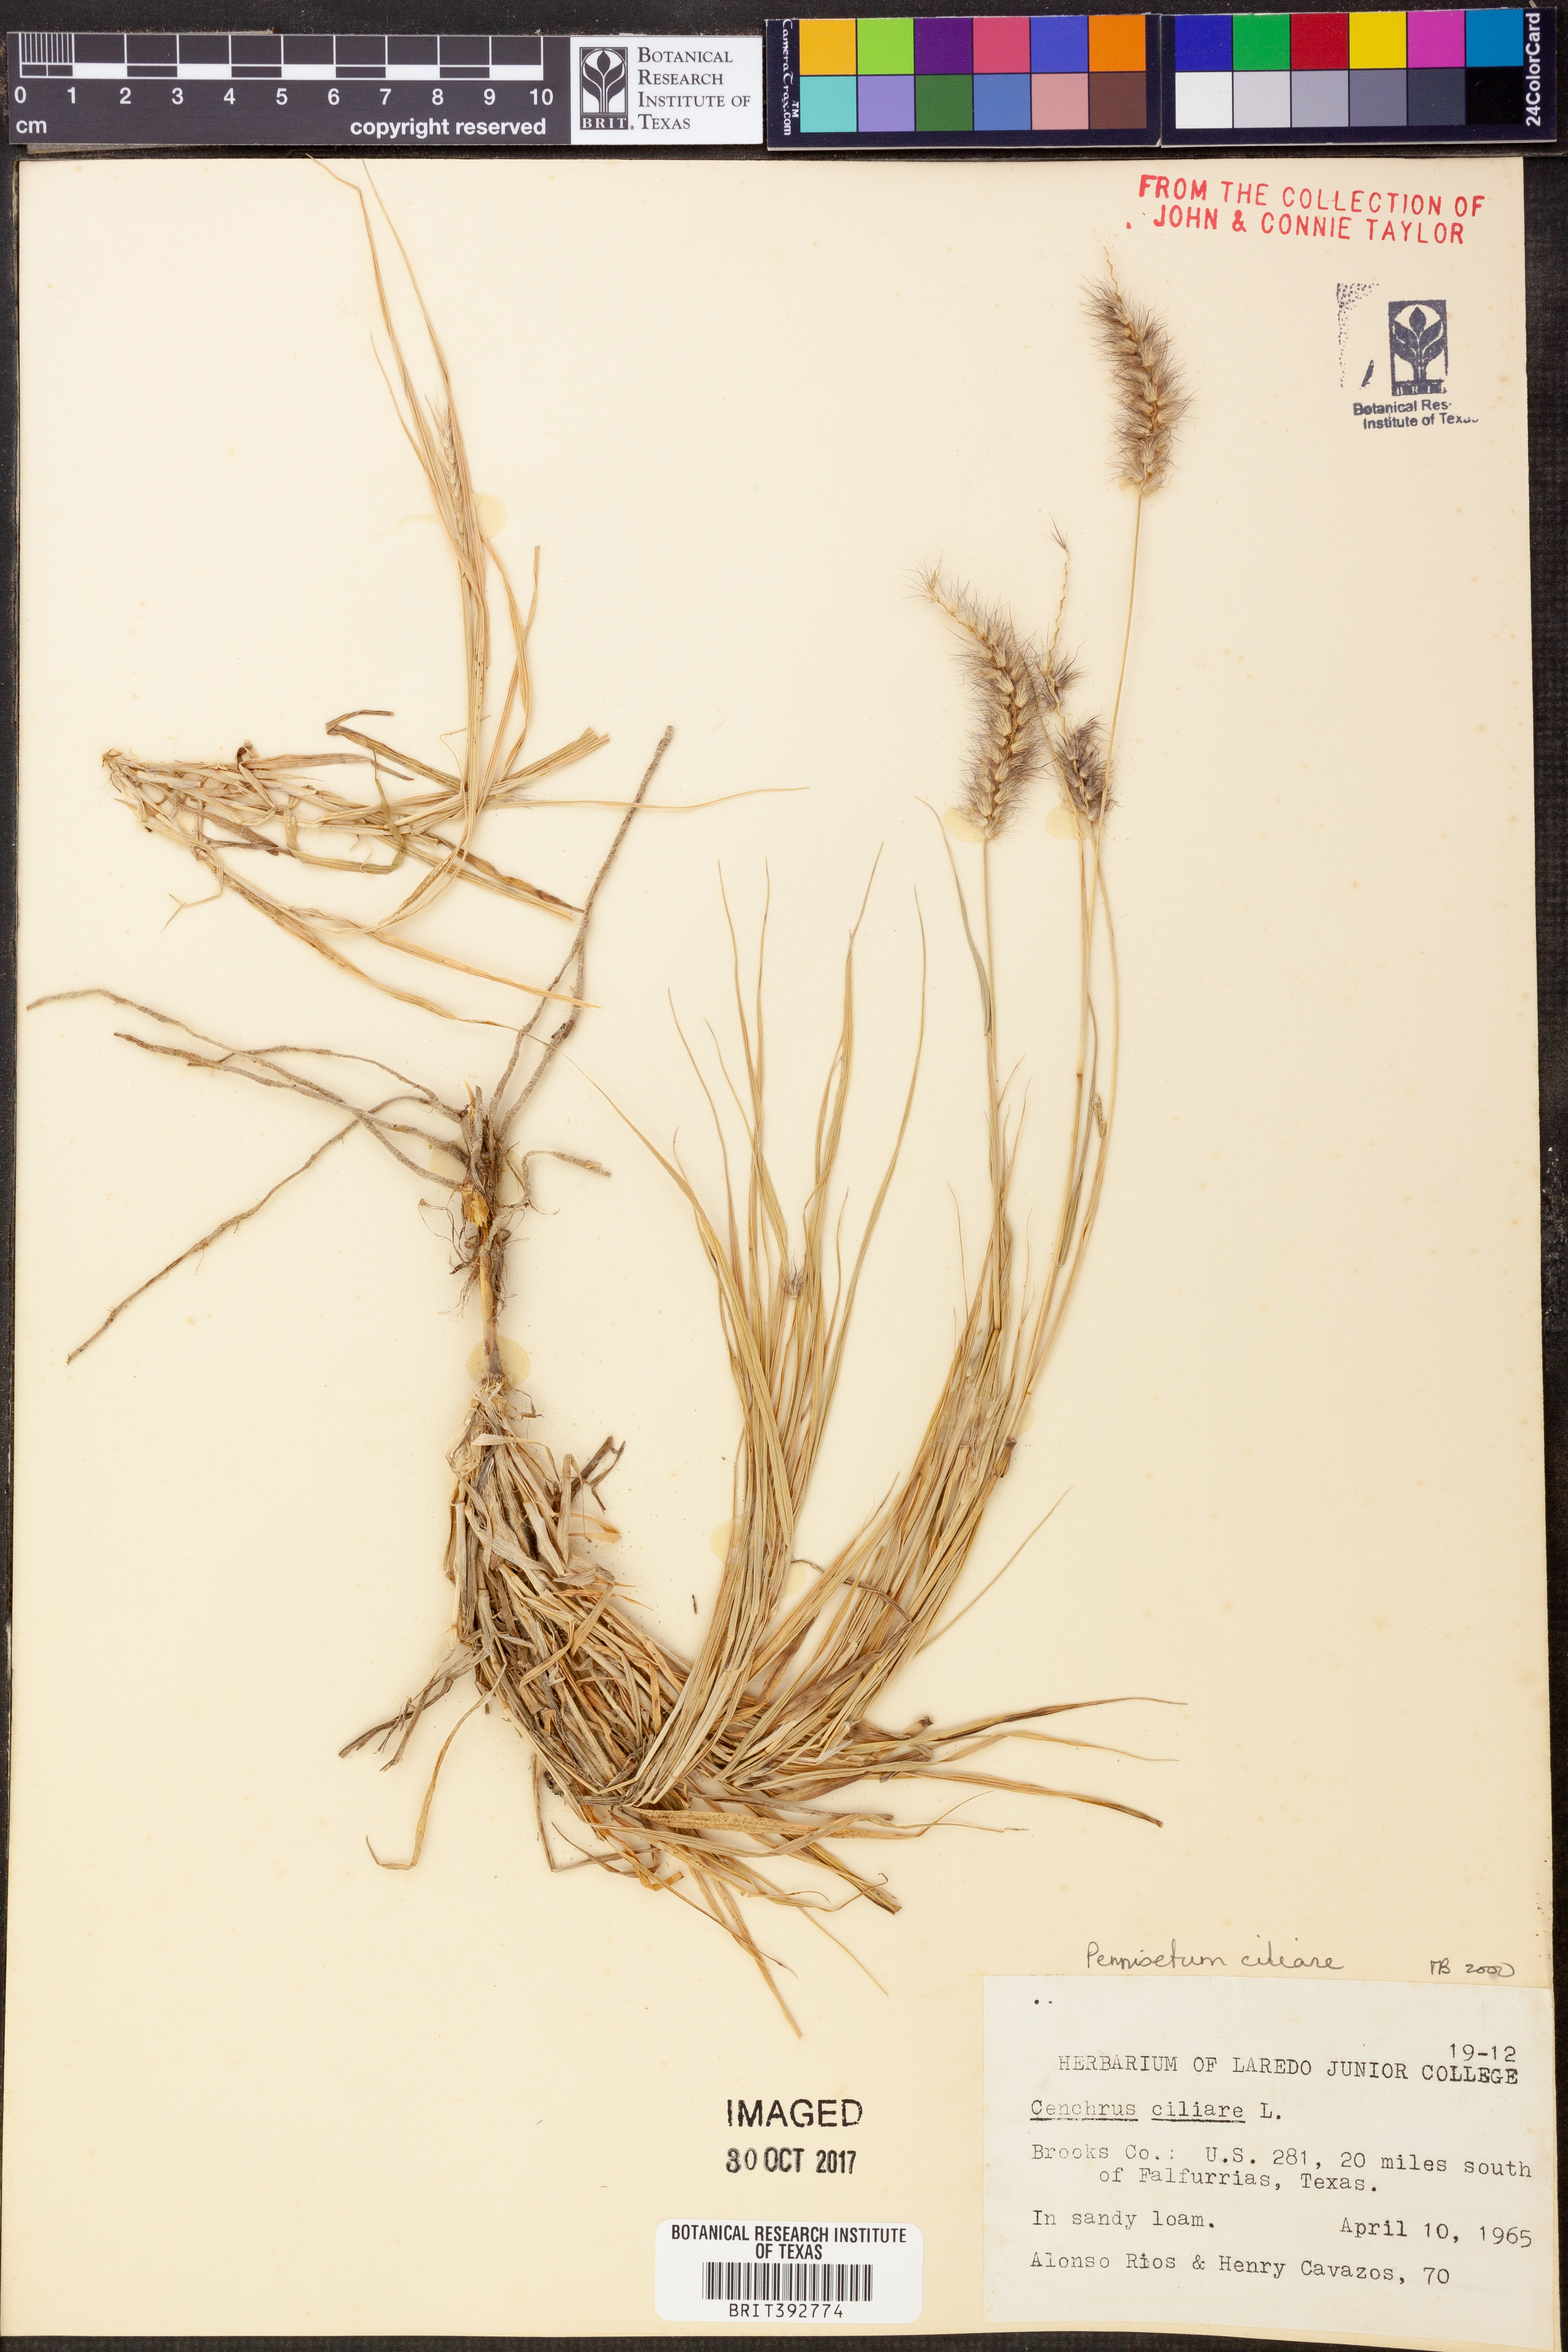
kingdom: Plantae
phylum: Tracheophyta
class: Liliopsida
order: Poales
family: Poaceae
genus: Cenchrus
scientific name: Cenchrus ciliaris
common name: Buffelgrass
